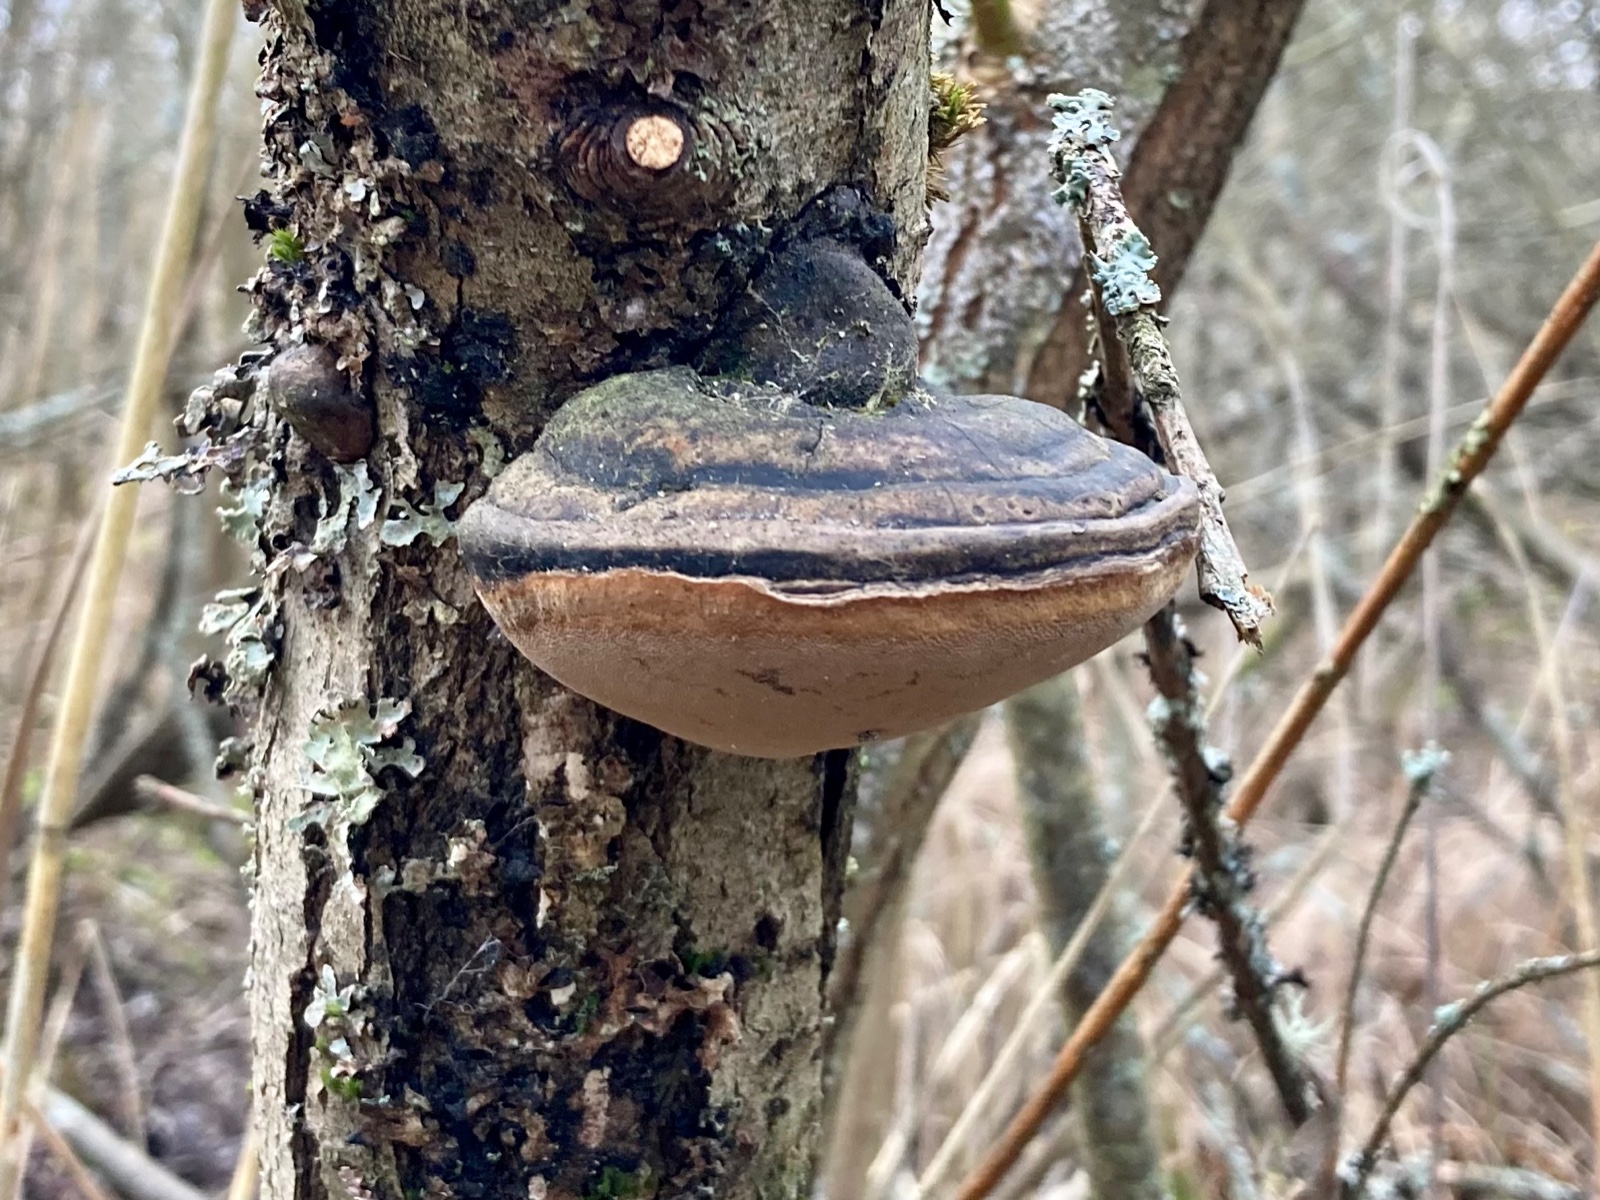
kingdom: Fungi
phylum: Basidiomycota
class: Agaricomycetes
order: Hymenochaetales
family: Hymenochaetaceae
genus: Phellinus
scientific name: Phellinus igniarius
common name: almindelig ildporesvamp
